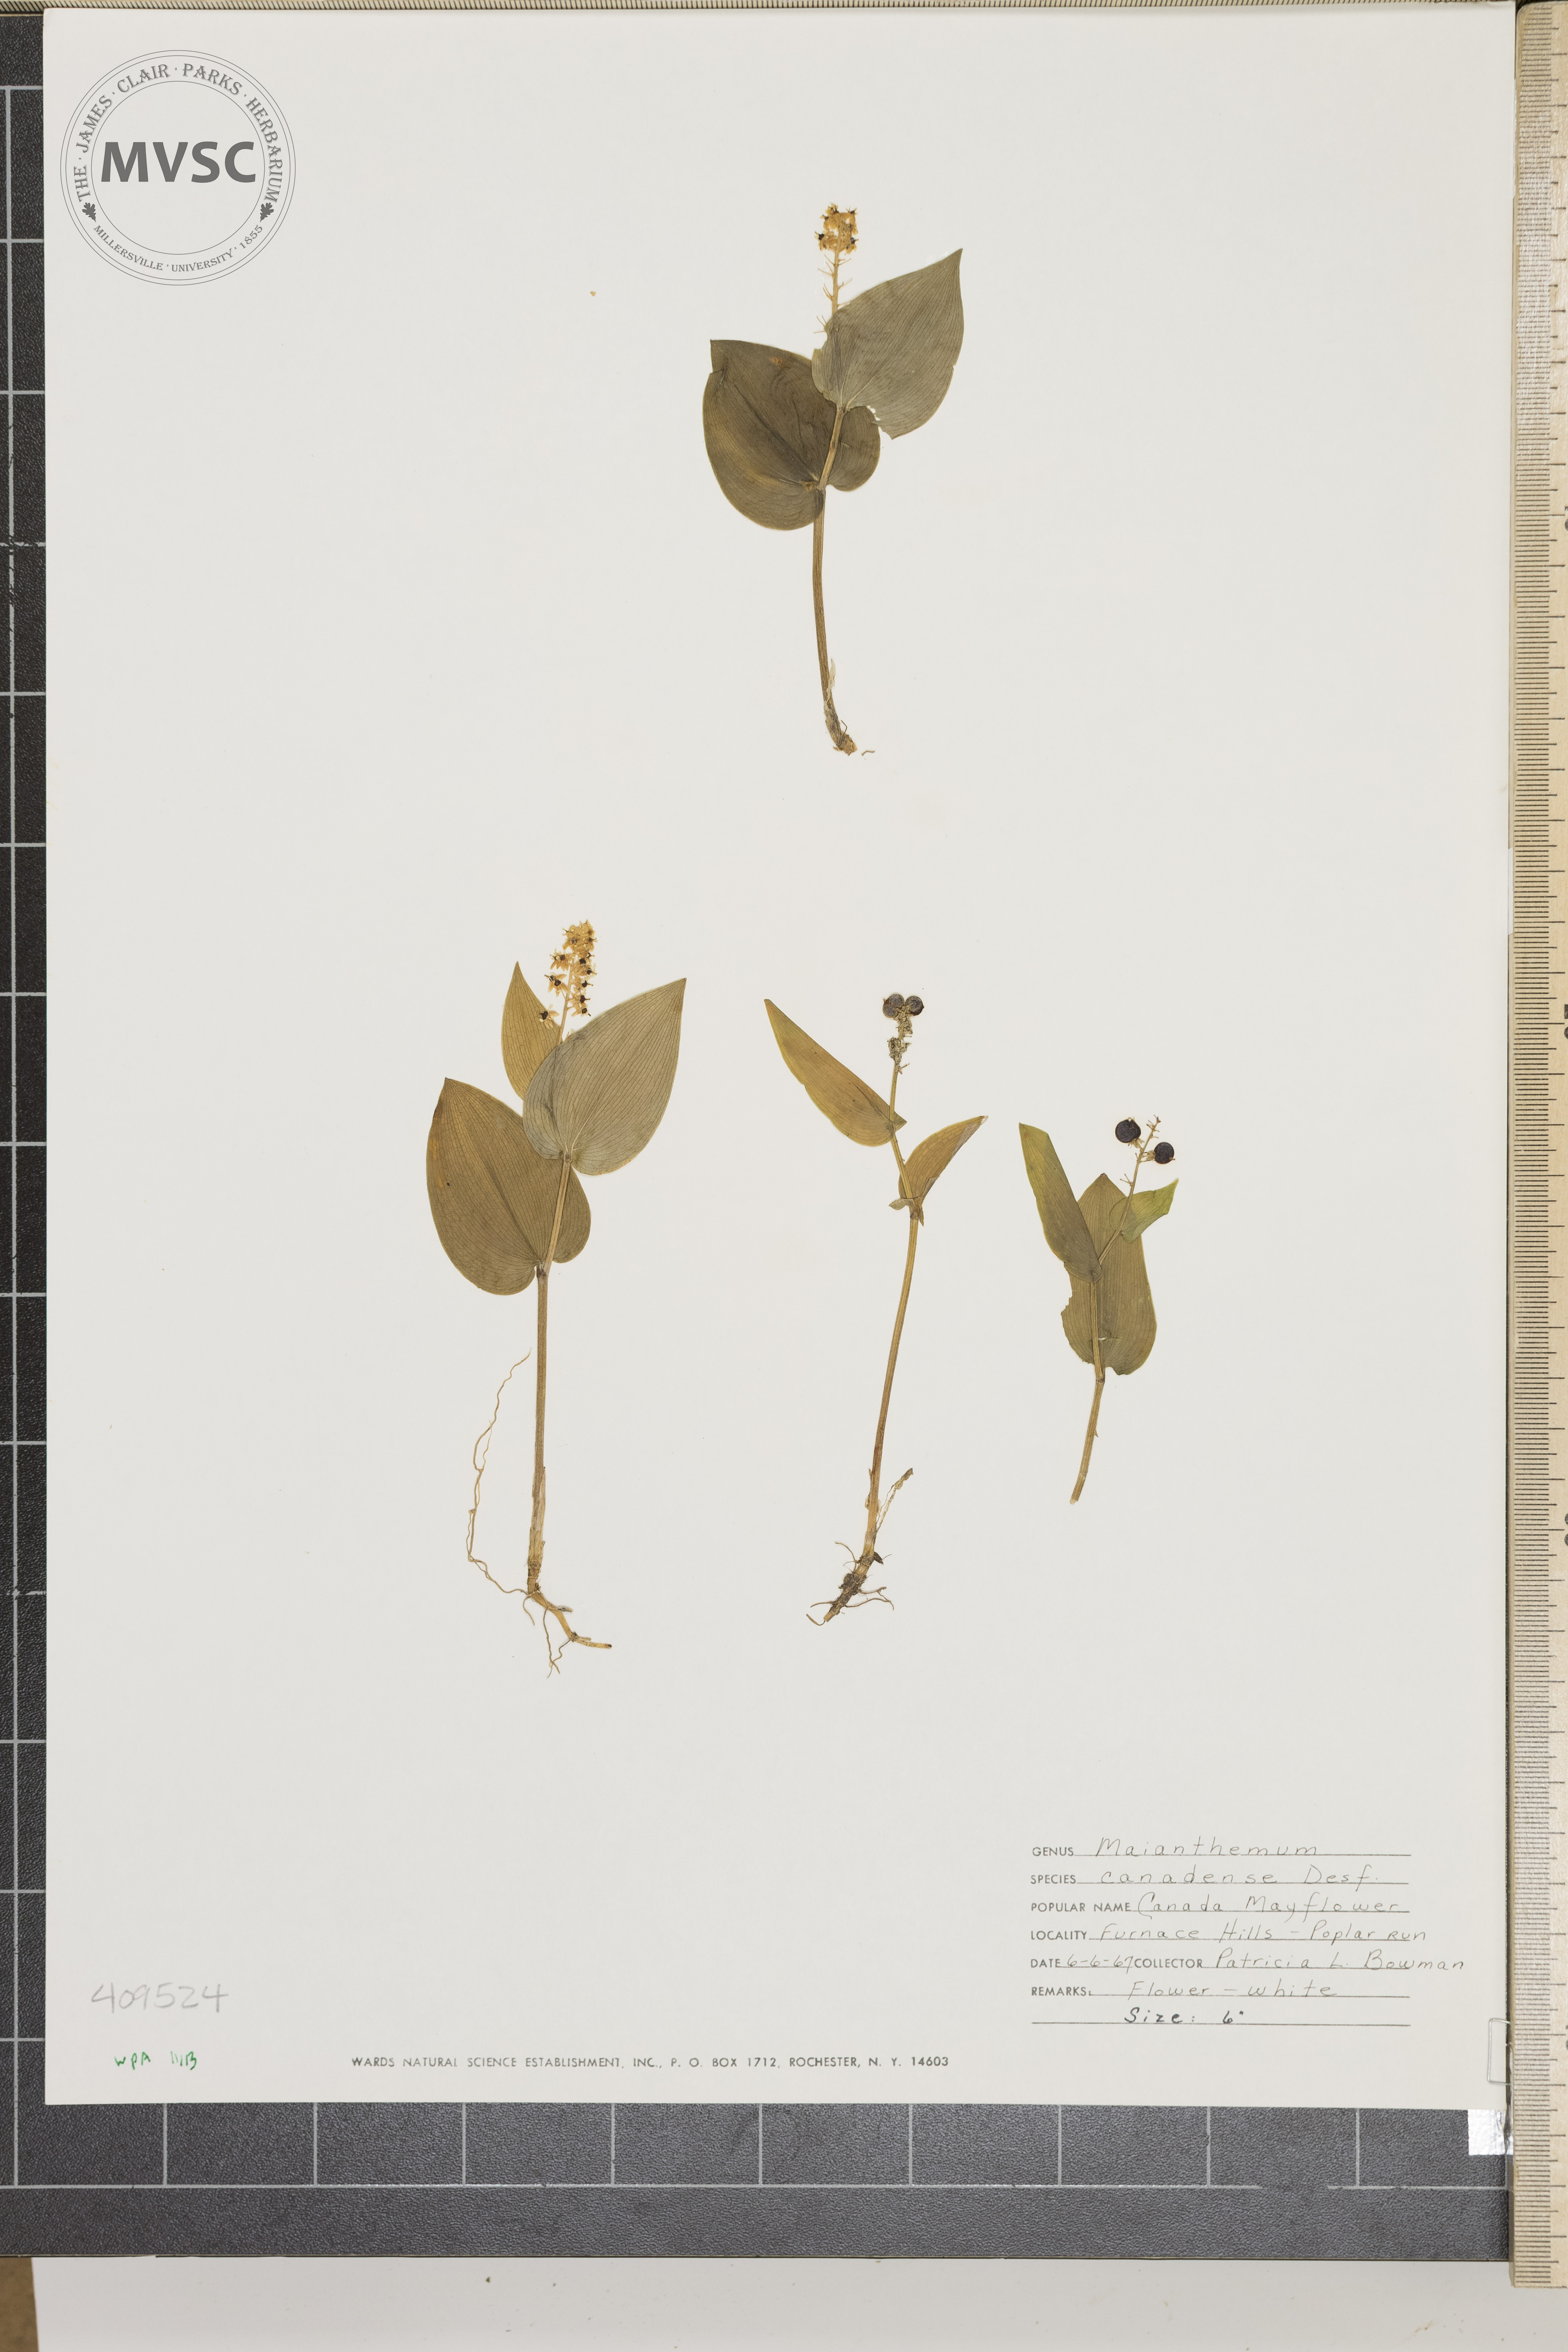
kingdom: Plantae
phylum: Tracheophyta
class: Liliopsida
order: Asparagales
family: Asparagaceae
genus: Maianthemum
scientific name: Maianthemum canadense
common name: False lily-of-the-valley
